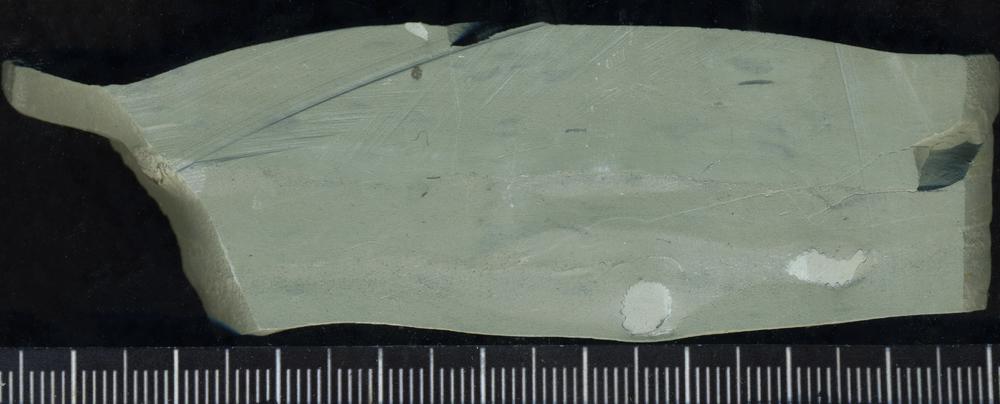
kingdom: Plantae
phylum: Tracheophyta
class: Pinopsida
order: Pinales
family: Cupressaceae
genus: Platycladus
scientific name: Platycladus
